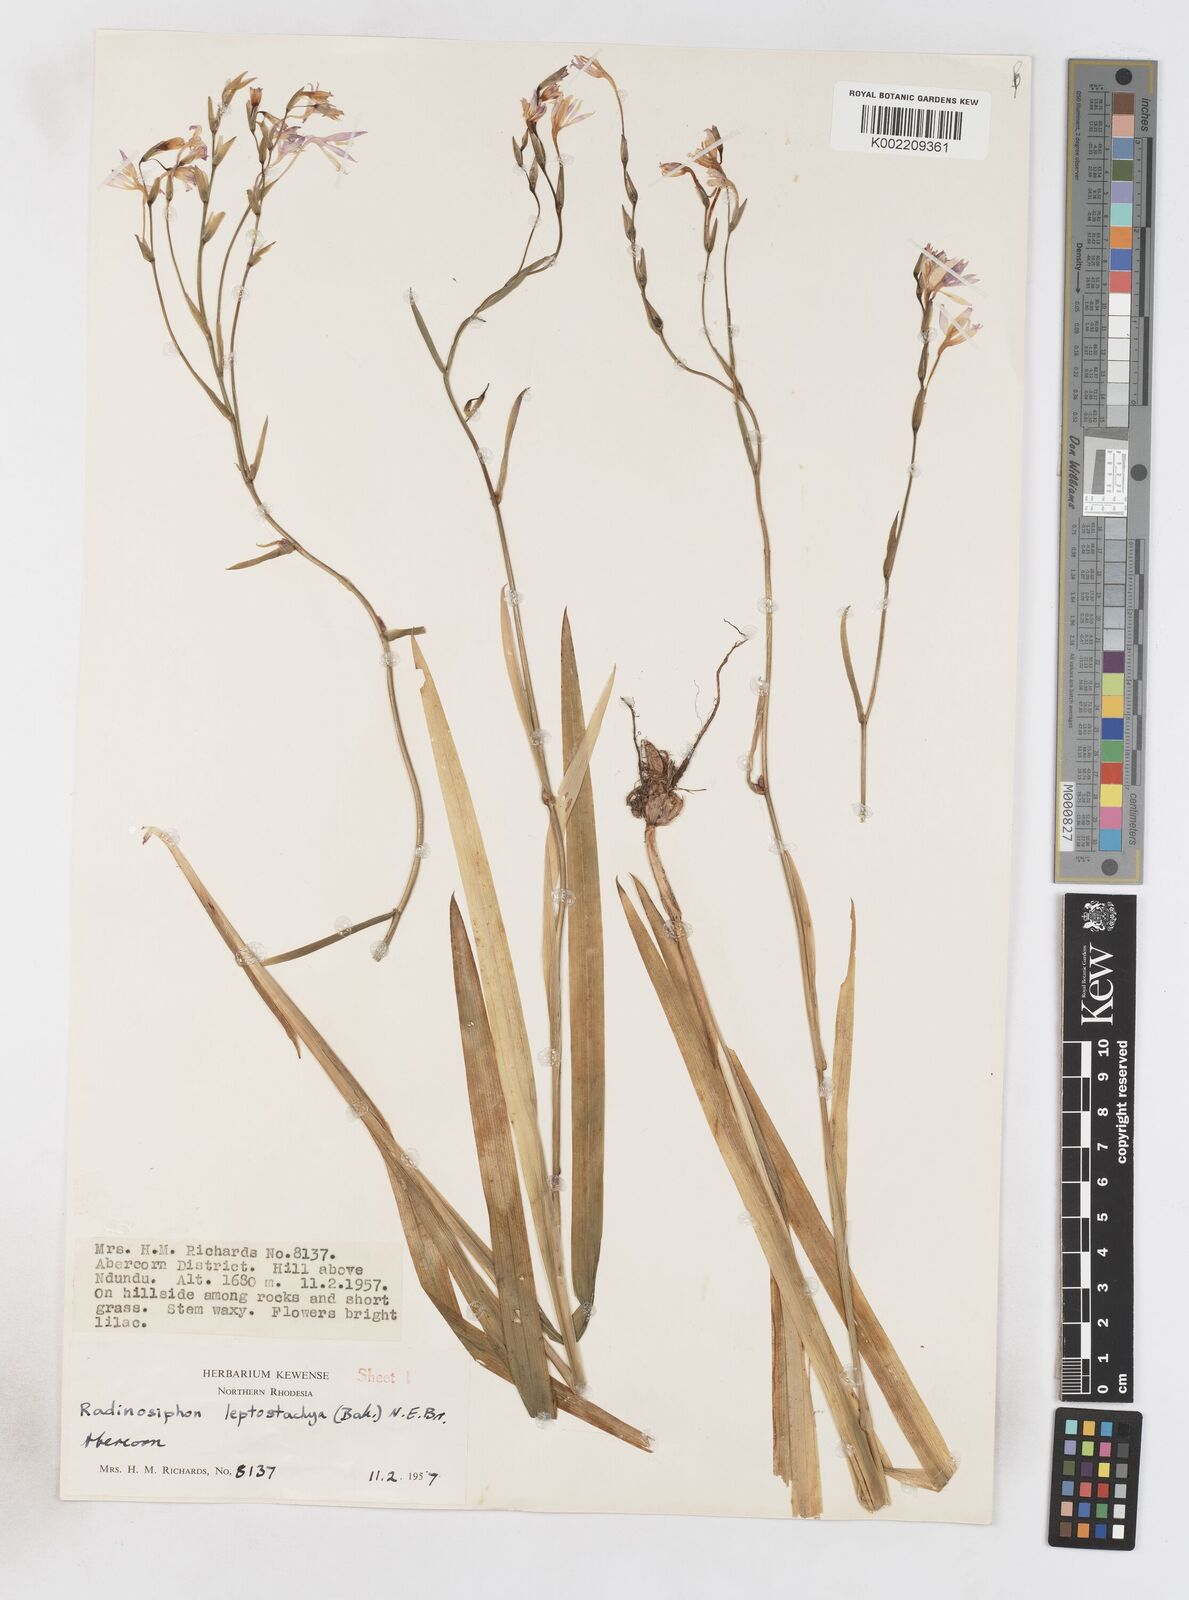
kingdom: Plantae
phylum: Tracheophyta
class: Liliopsida
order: Asparagales
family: Iridaceae
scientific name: Iridaceae
